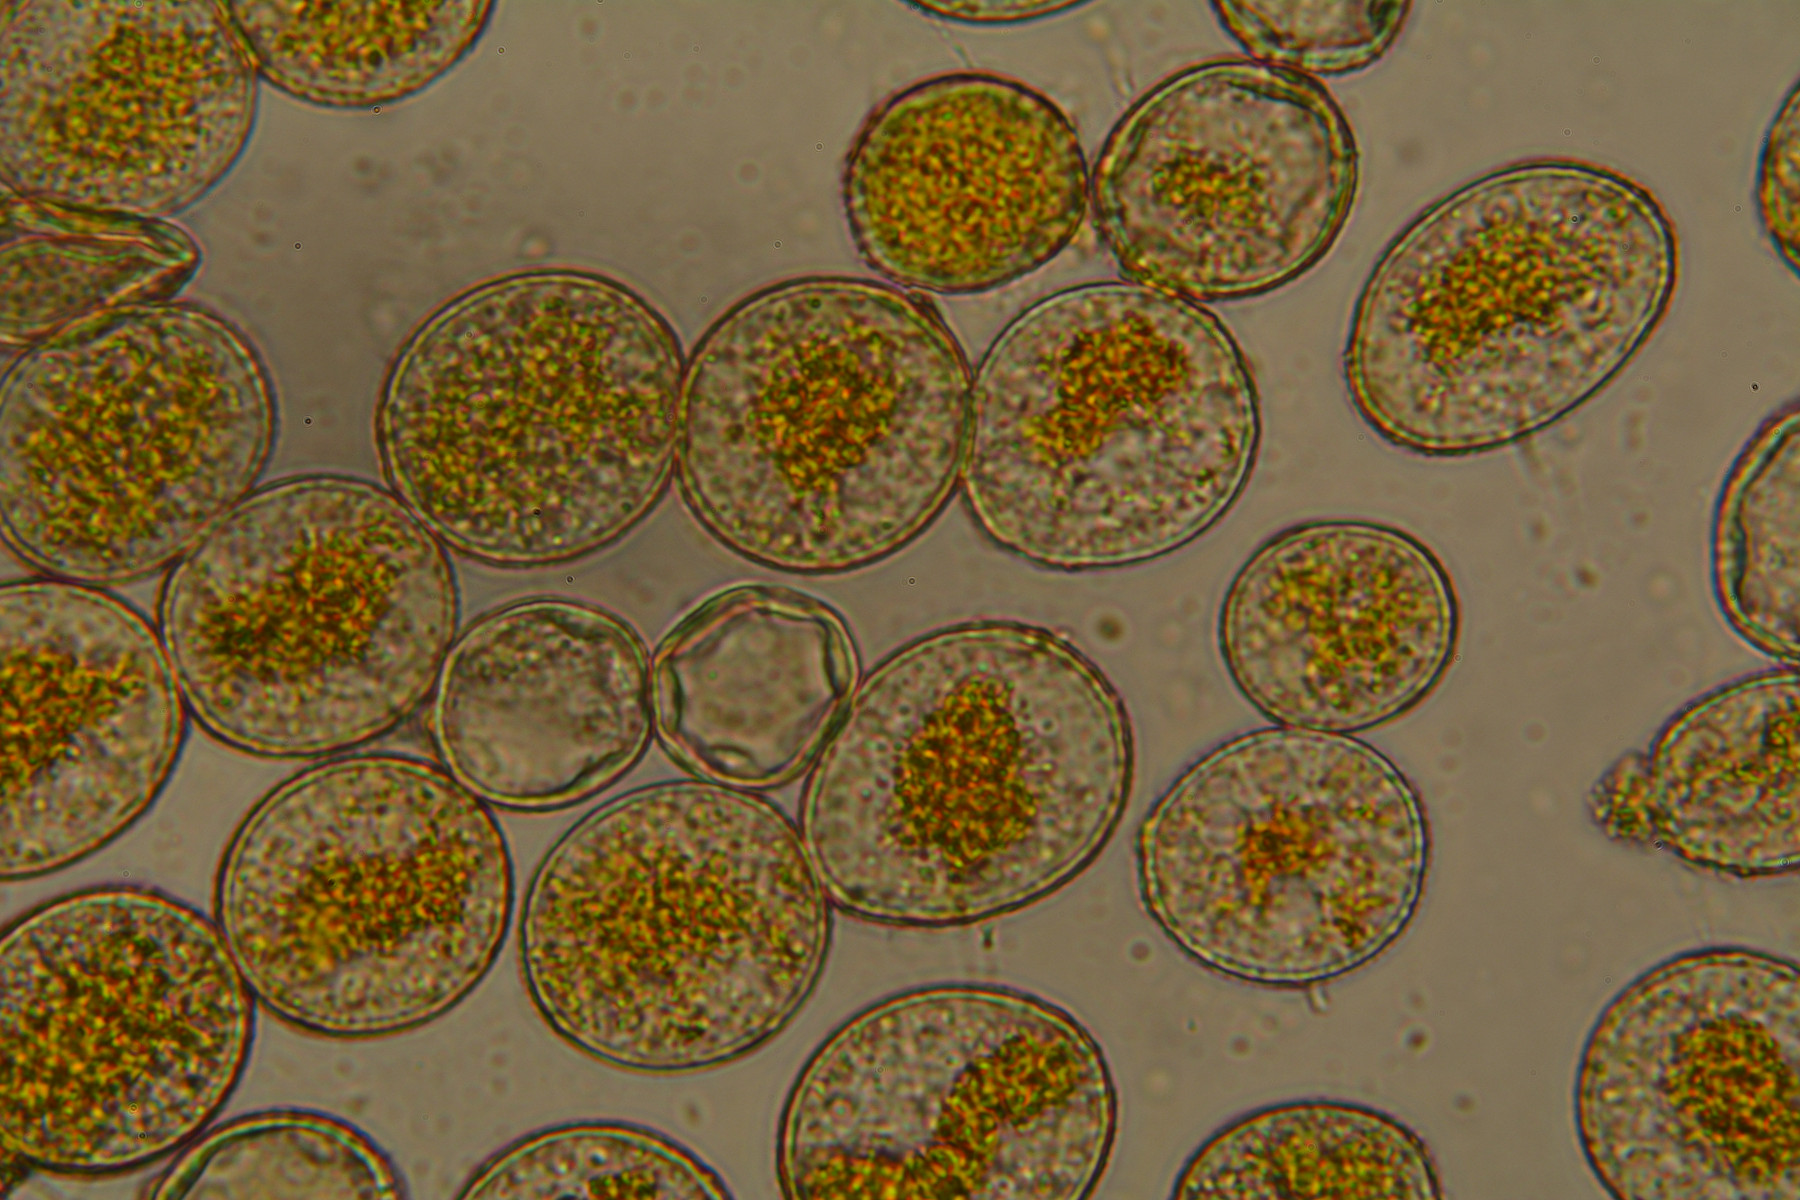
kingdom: Fungi
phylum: Basidiomycota
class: Pucciniomycetes
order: Pucciniales
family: Pucciniaceae
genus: Puccinia
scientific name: Puccinia porri
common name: Allium rust
